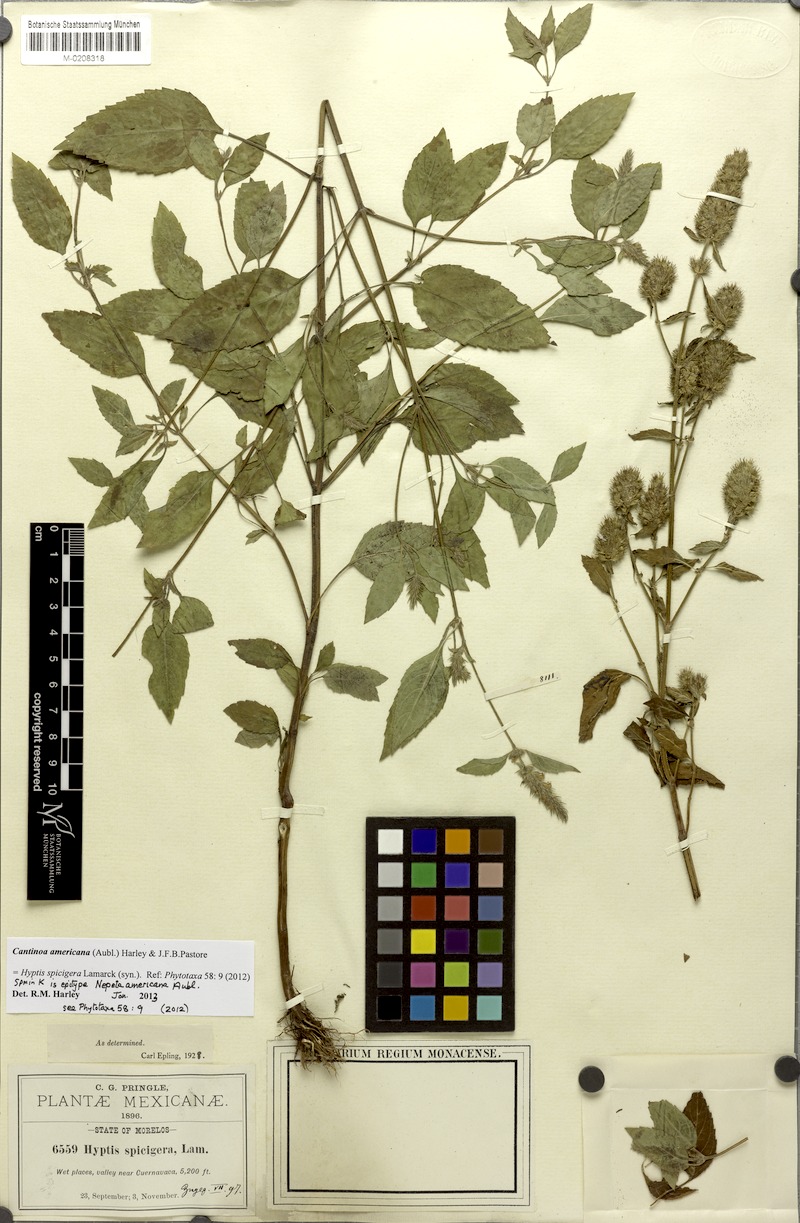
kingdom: Plantae
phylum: Tracheophyta
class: Magnoliopsida
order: Lamiales
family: Lamiaceae
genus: Cantinoa
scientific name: Cantinoa americana
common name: Black-sesame
